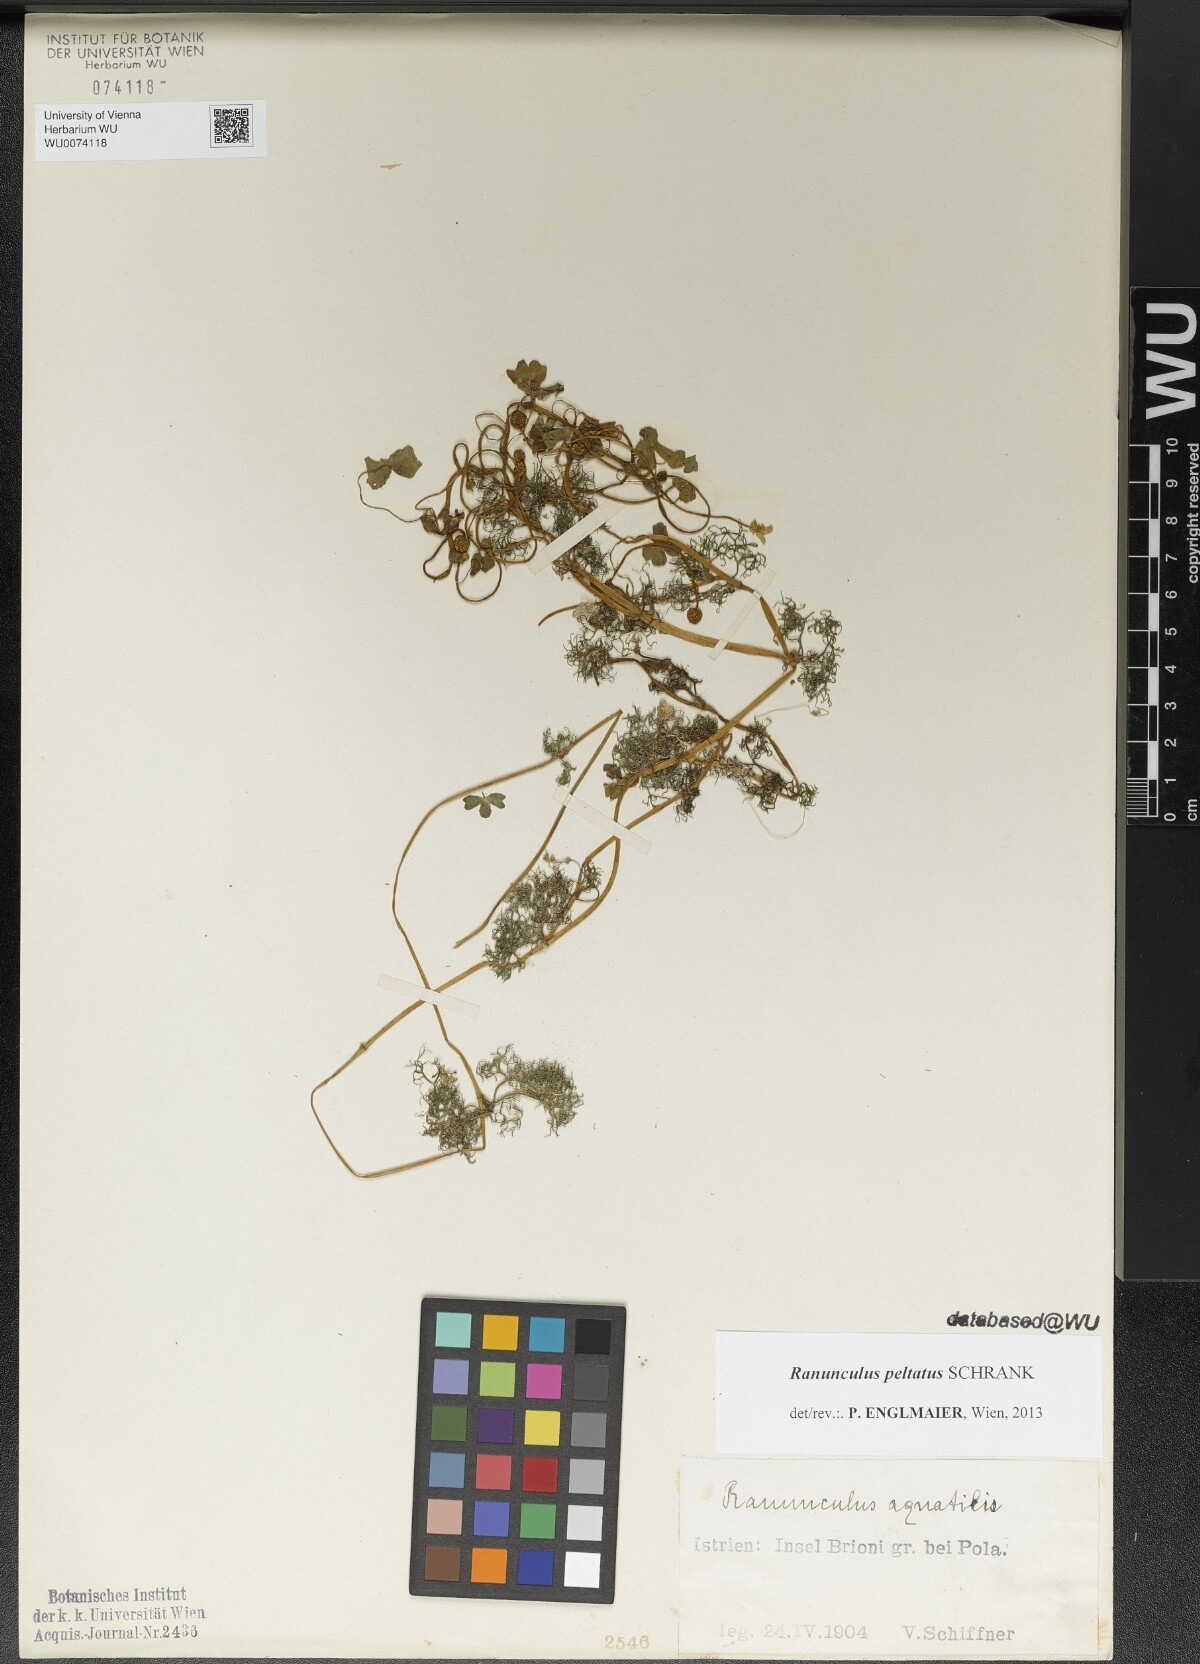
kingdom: Plantae
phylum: Tracheophyta
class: Magnoliopsida
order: Ranunculales
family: Ranunculaceae
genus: Ranunculus
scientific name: Ranunculus peltatus
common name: Pond water-crowfoot
